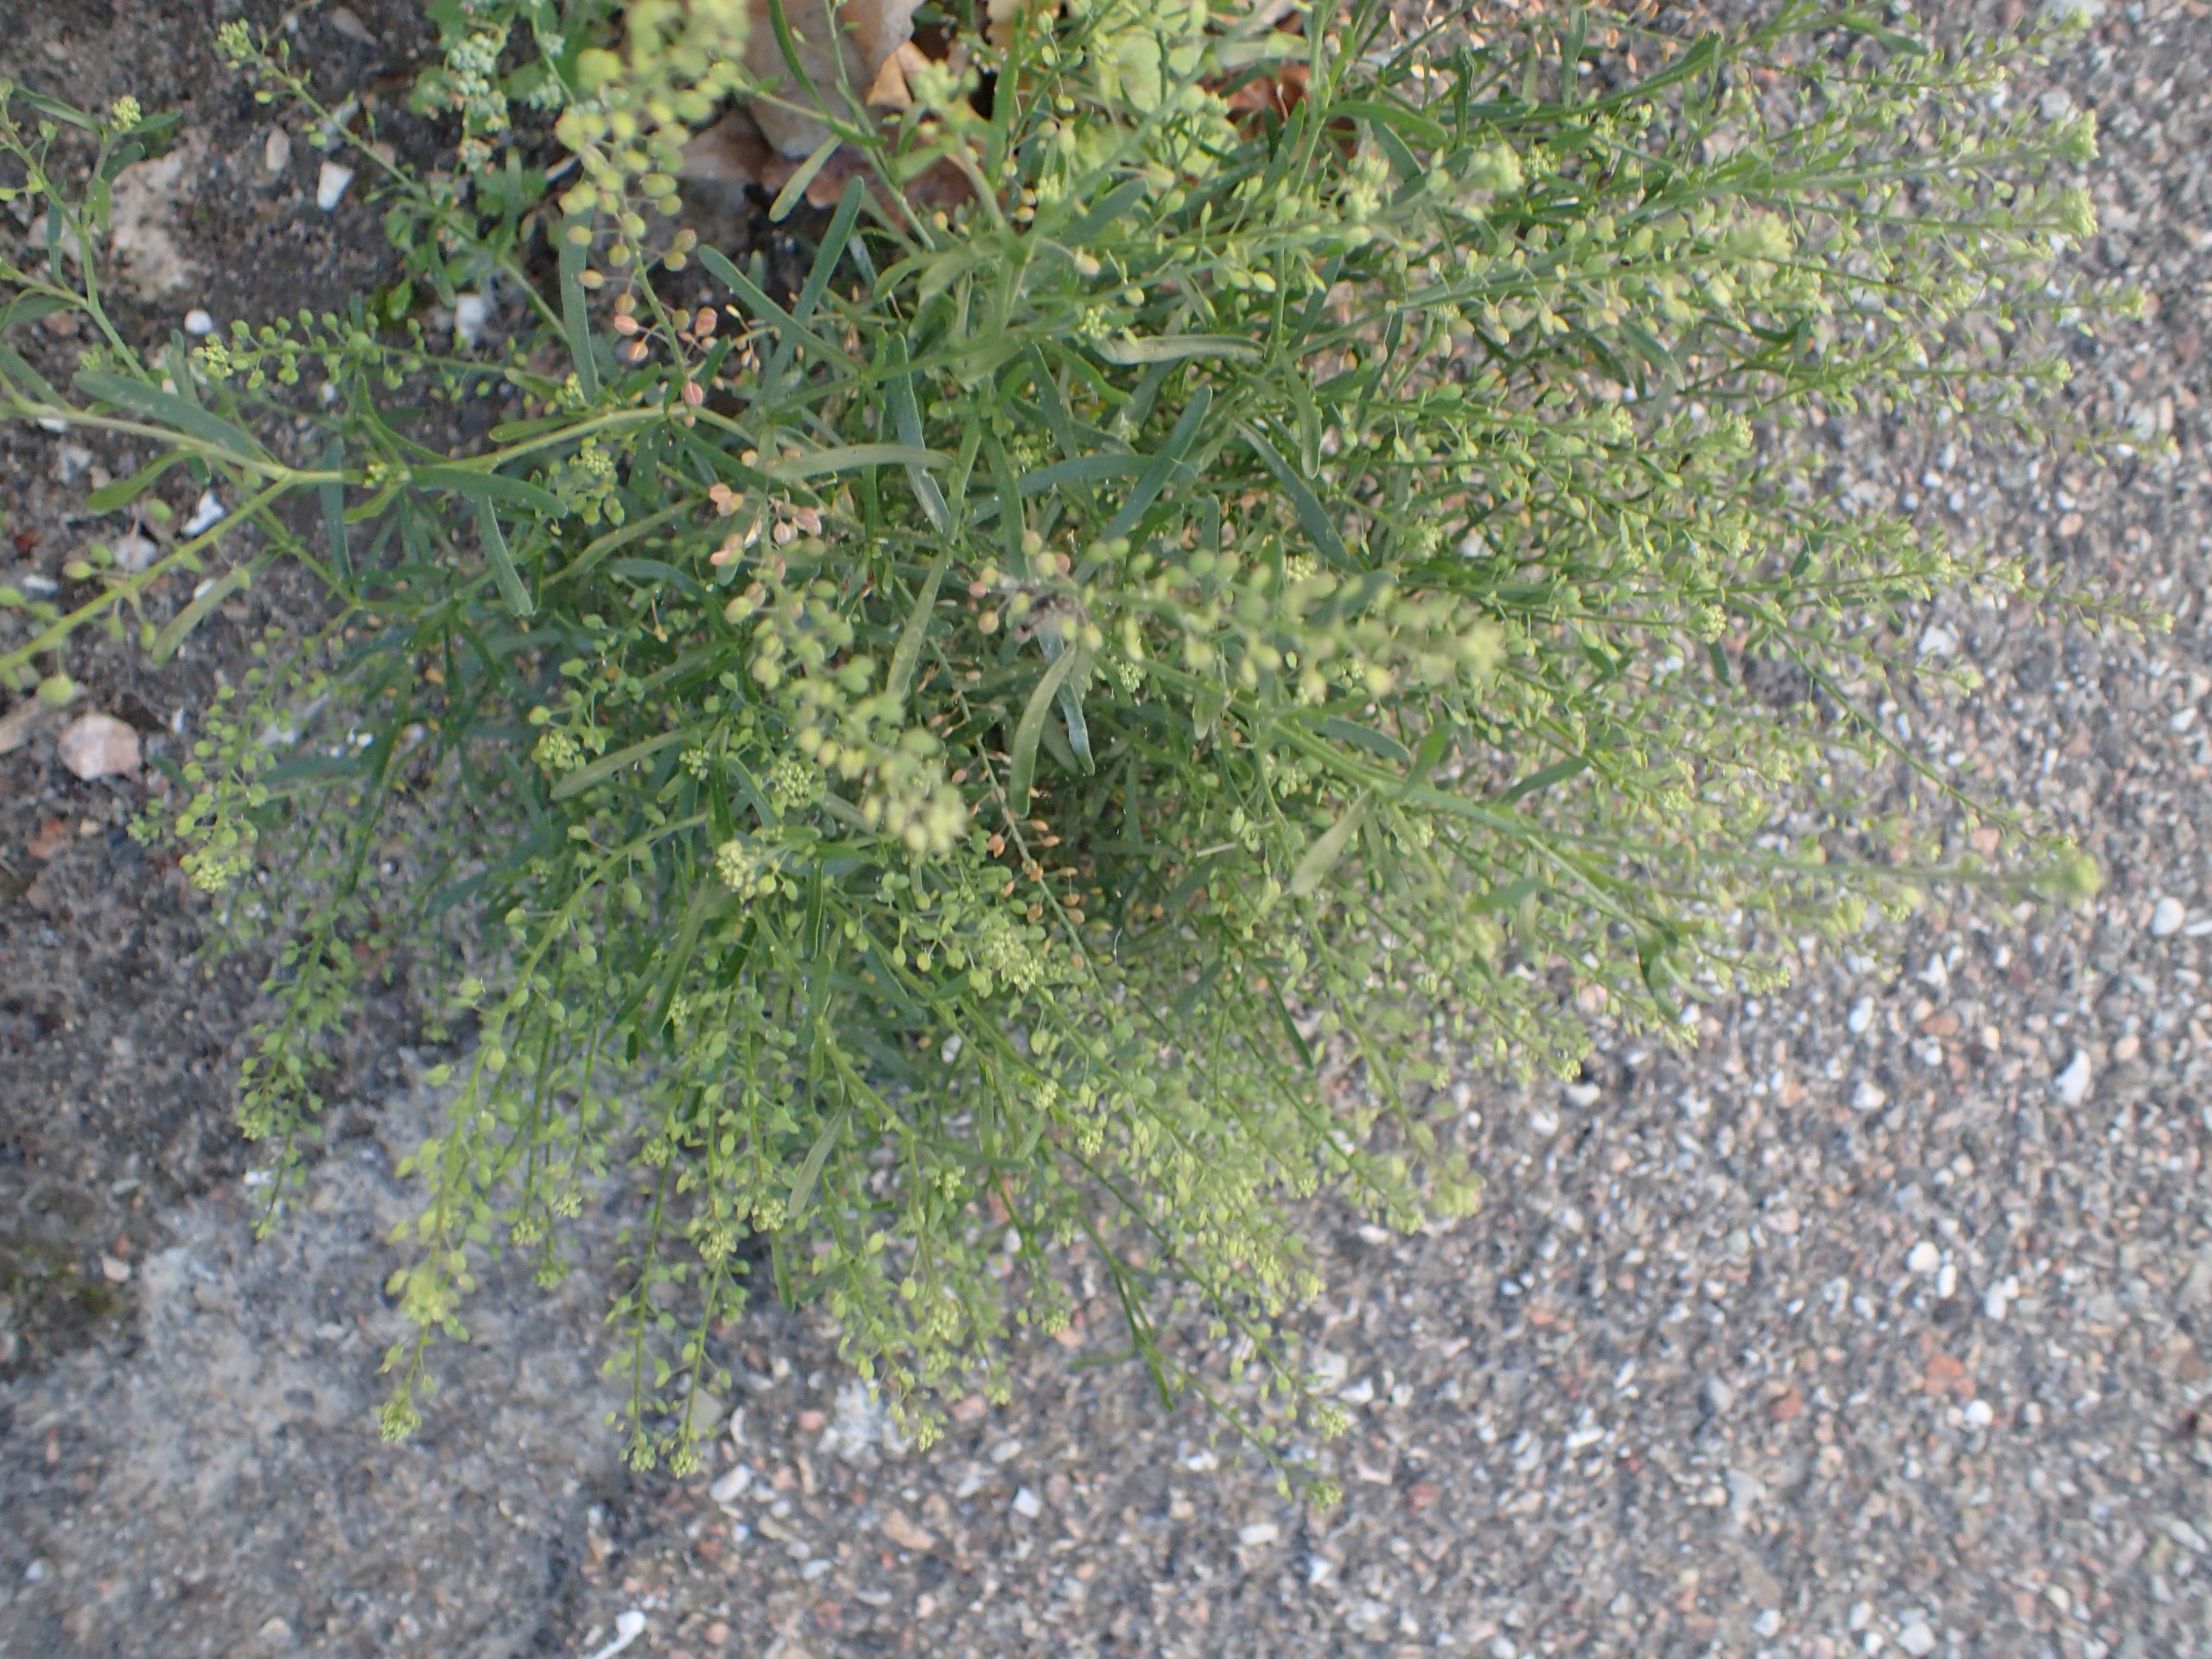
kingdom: Plantae
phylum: Tracheophyta
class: Magnoliopsida
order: Brassicales
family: Brassicaceae
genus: Lepidium
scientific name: Lepidium ruderale
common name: Stinkende karse
